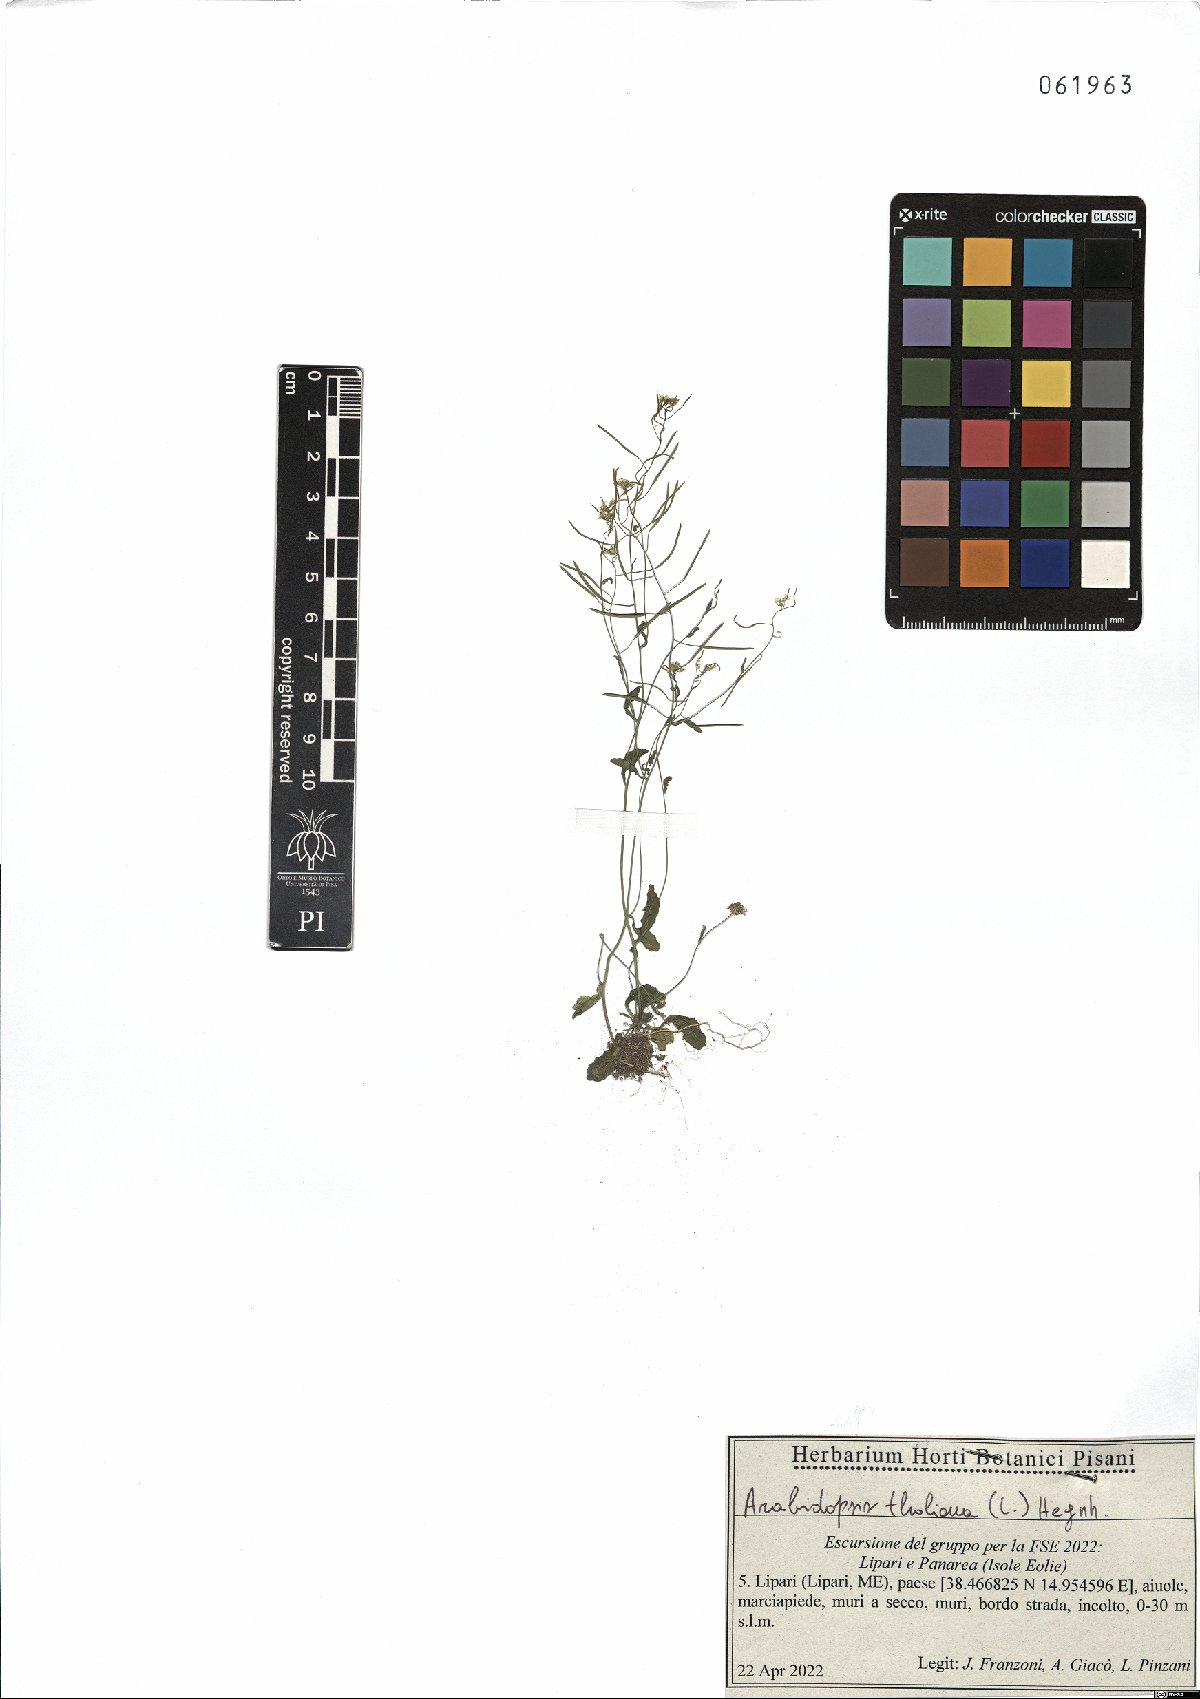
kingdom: Plantae
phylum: Tracheophyta
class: Magnoliopsida
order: Brassicales
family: Brassicaceae
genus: Arabidopsis
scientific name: Arabidopsis thaliana
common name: Thale cress
